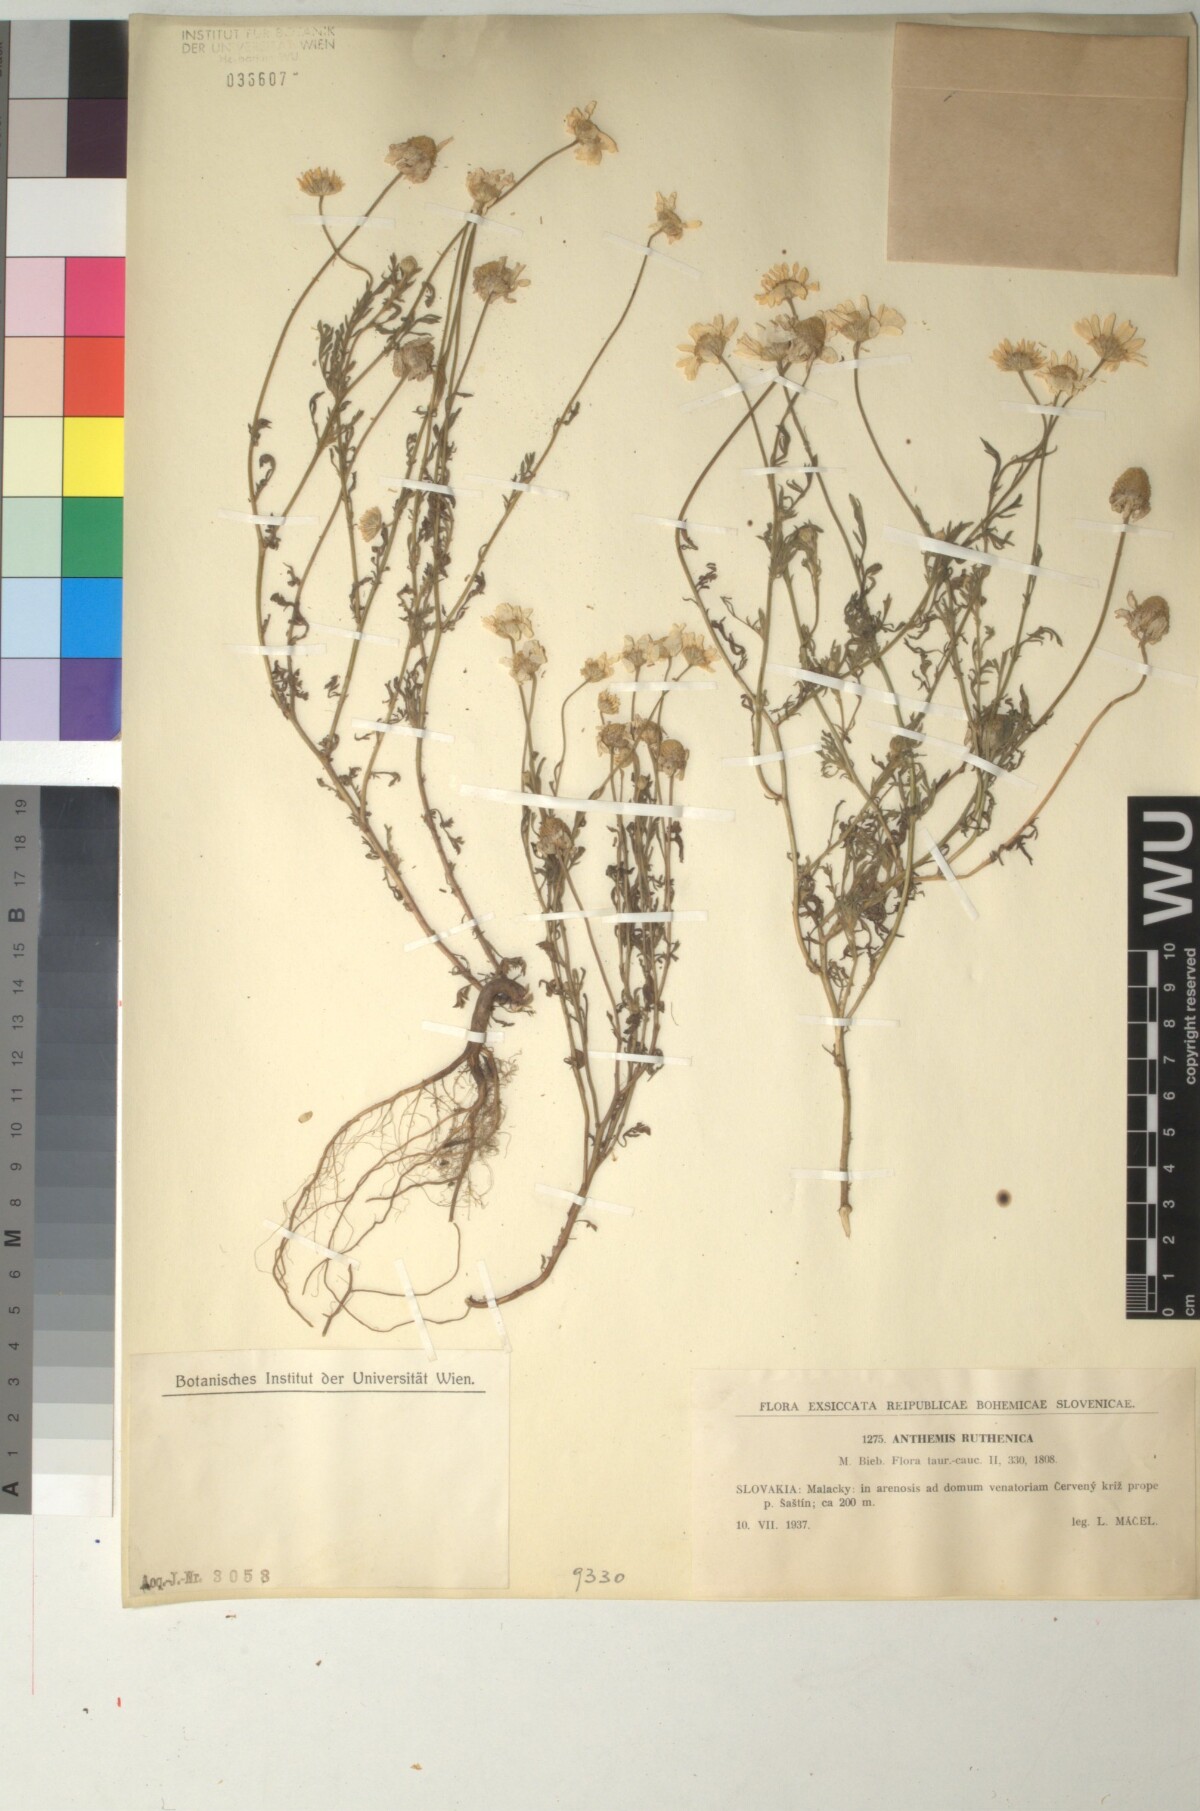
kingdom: Plantae
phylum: Tracheophyta
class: Magnoliopsida
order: Asterales
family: Asteraceae
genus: Anthemis
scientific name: Anthemis ruthenica
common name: Eastern chamomile
